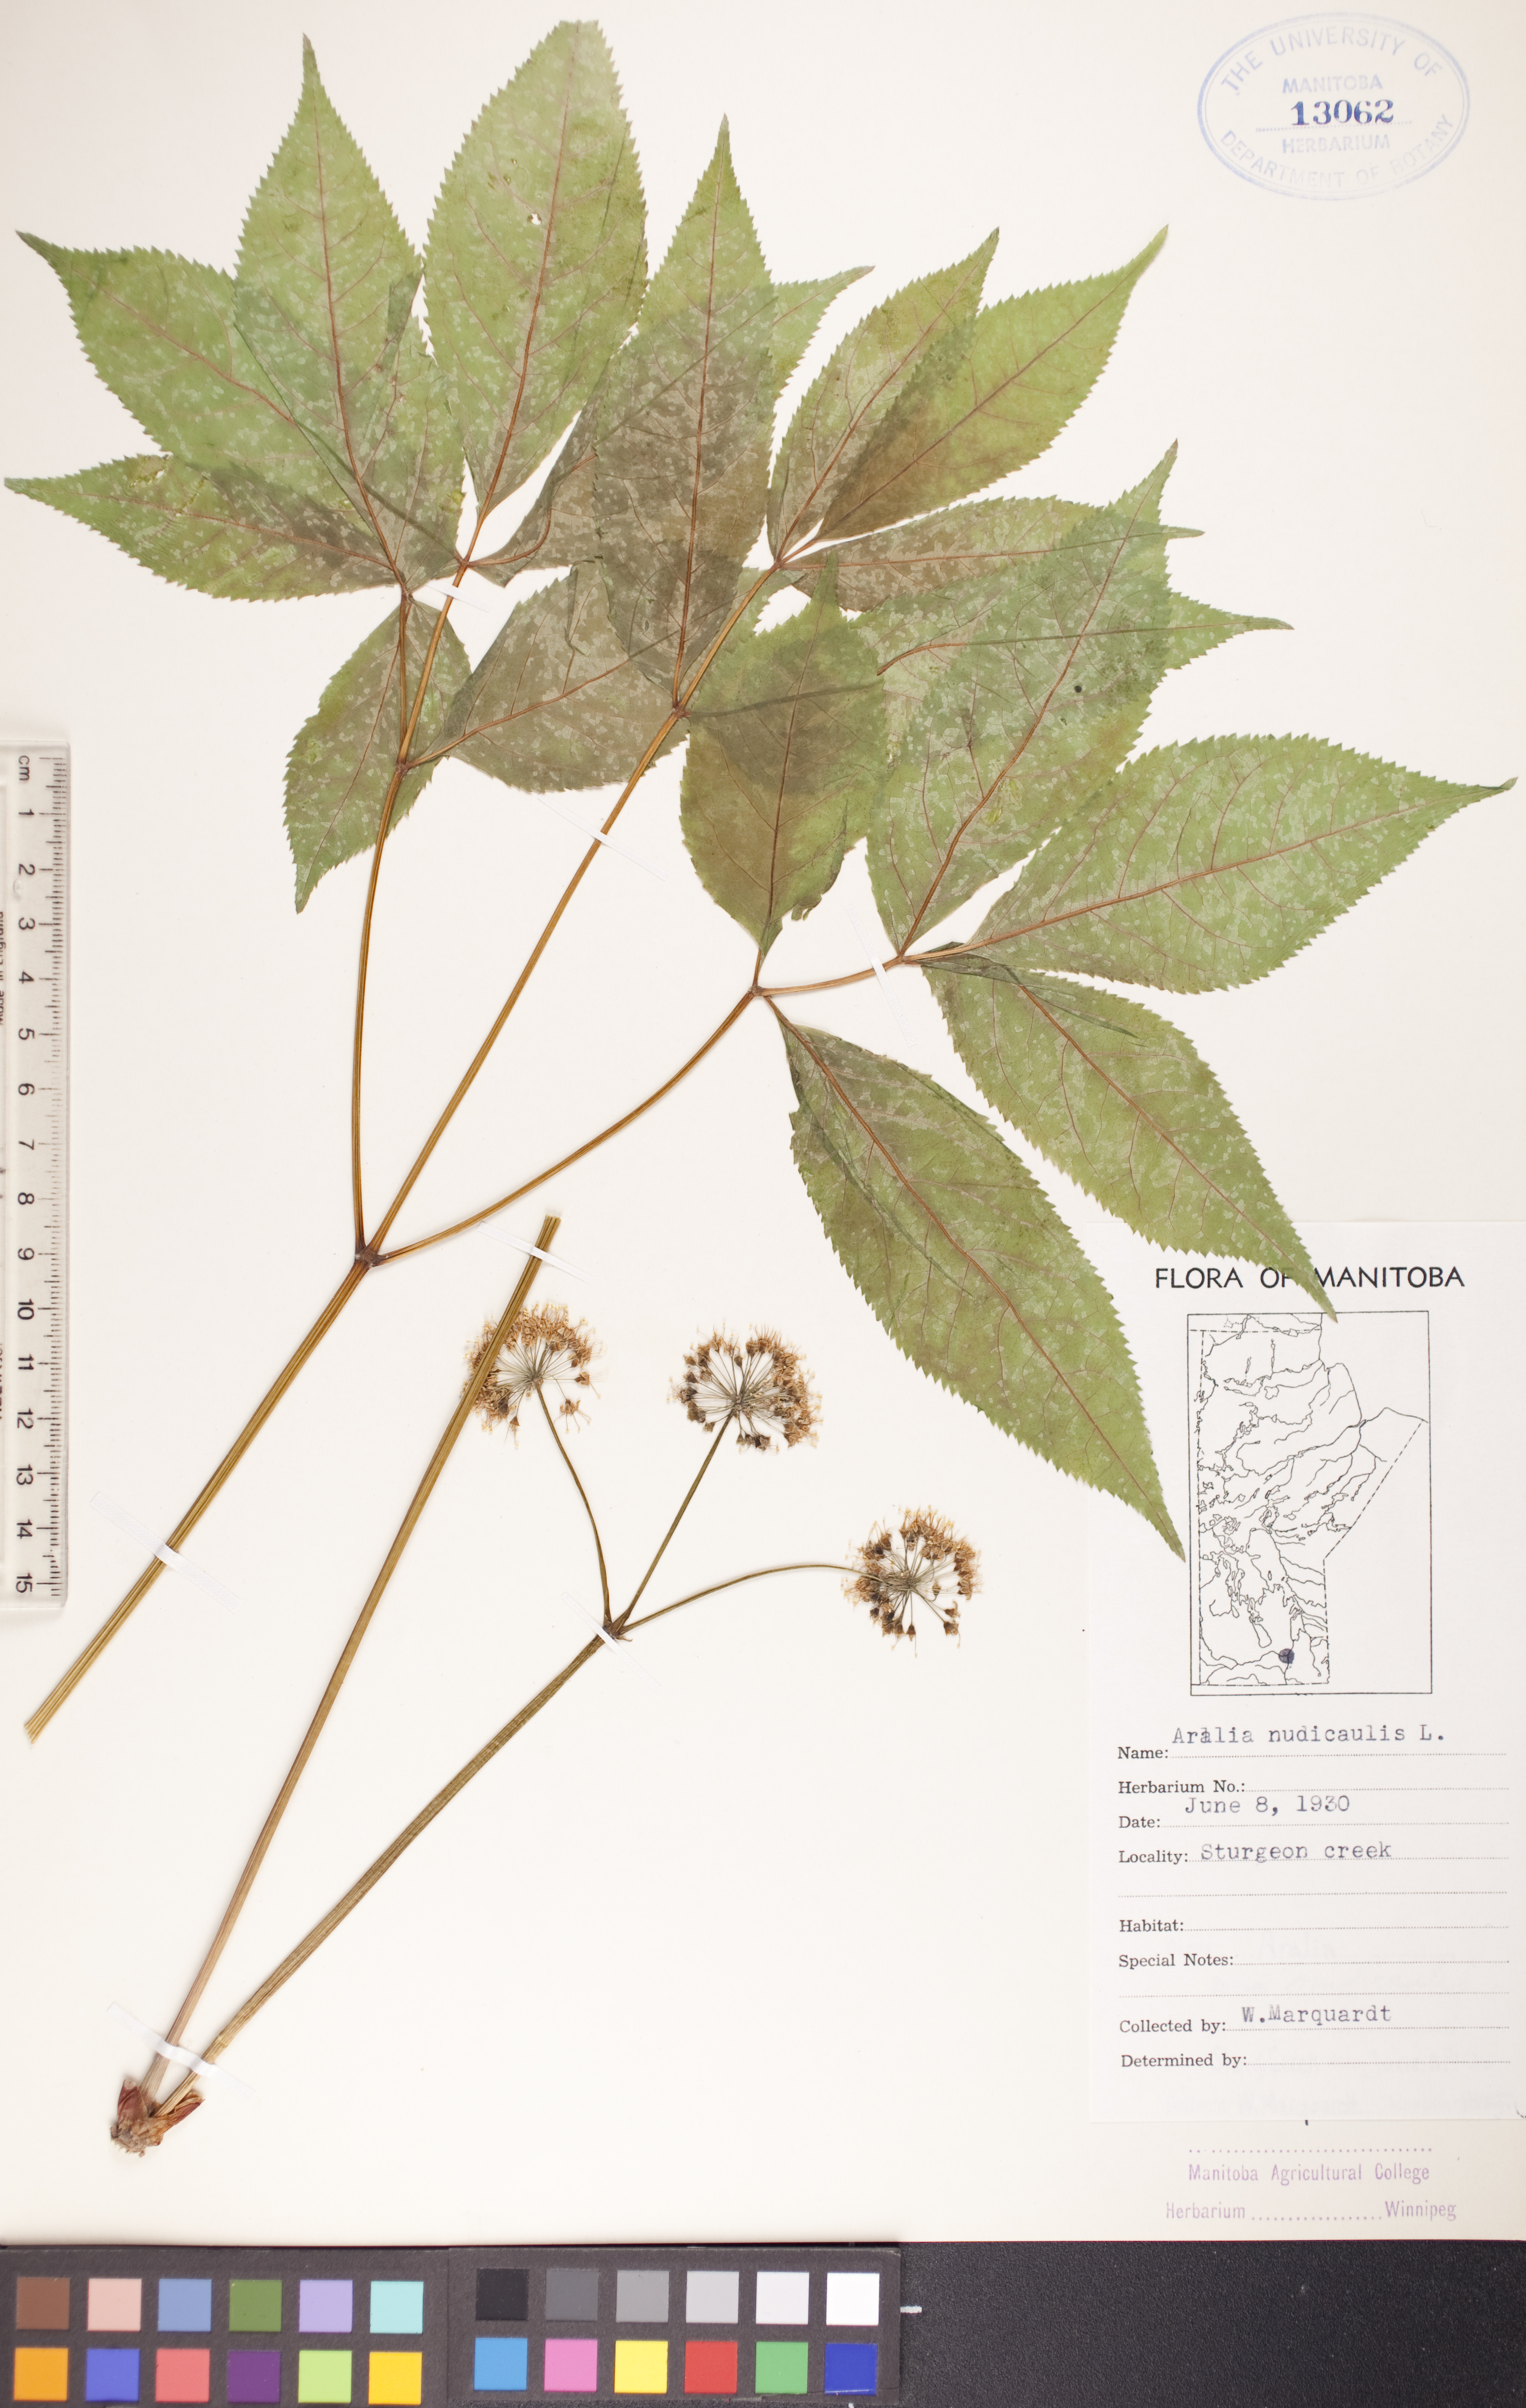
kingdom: Plantae
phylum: Tracheophyta
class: Magnoliopsida
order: Apiales
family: Araliaceae
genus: Aralia
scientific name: Aralia nudicaulis
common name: Wild sarsaparilla
